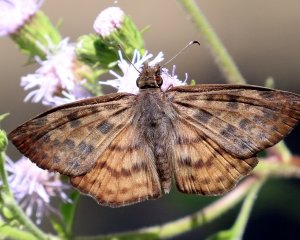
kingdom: Animalia
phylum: Arthropoda
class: Insecta
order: Lepidoptera
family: Hesperiidae
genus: Timochares
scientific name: Timochares ruptifasciata
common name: Brown-banded Skipper
